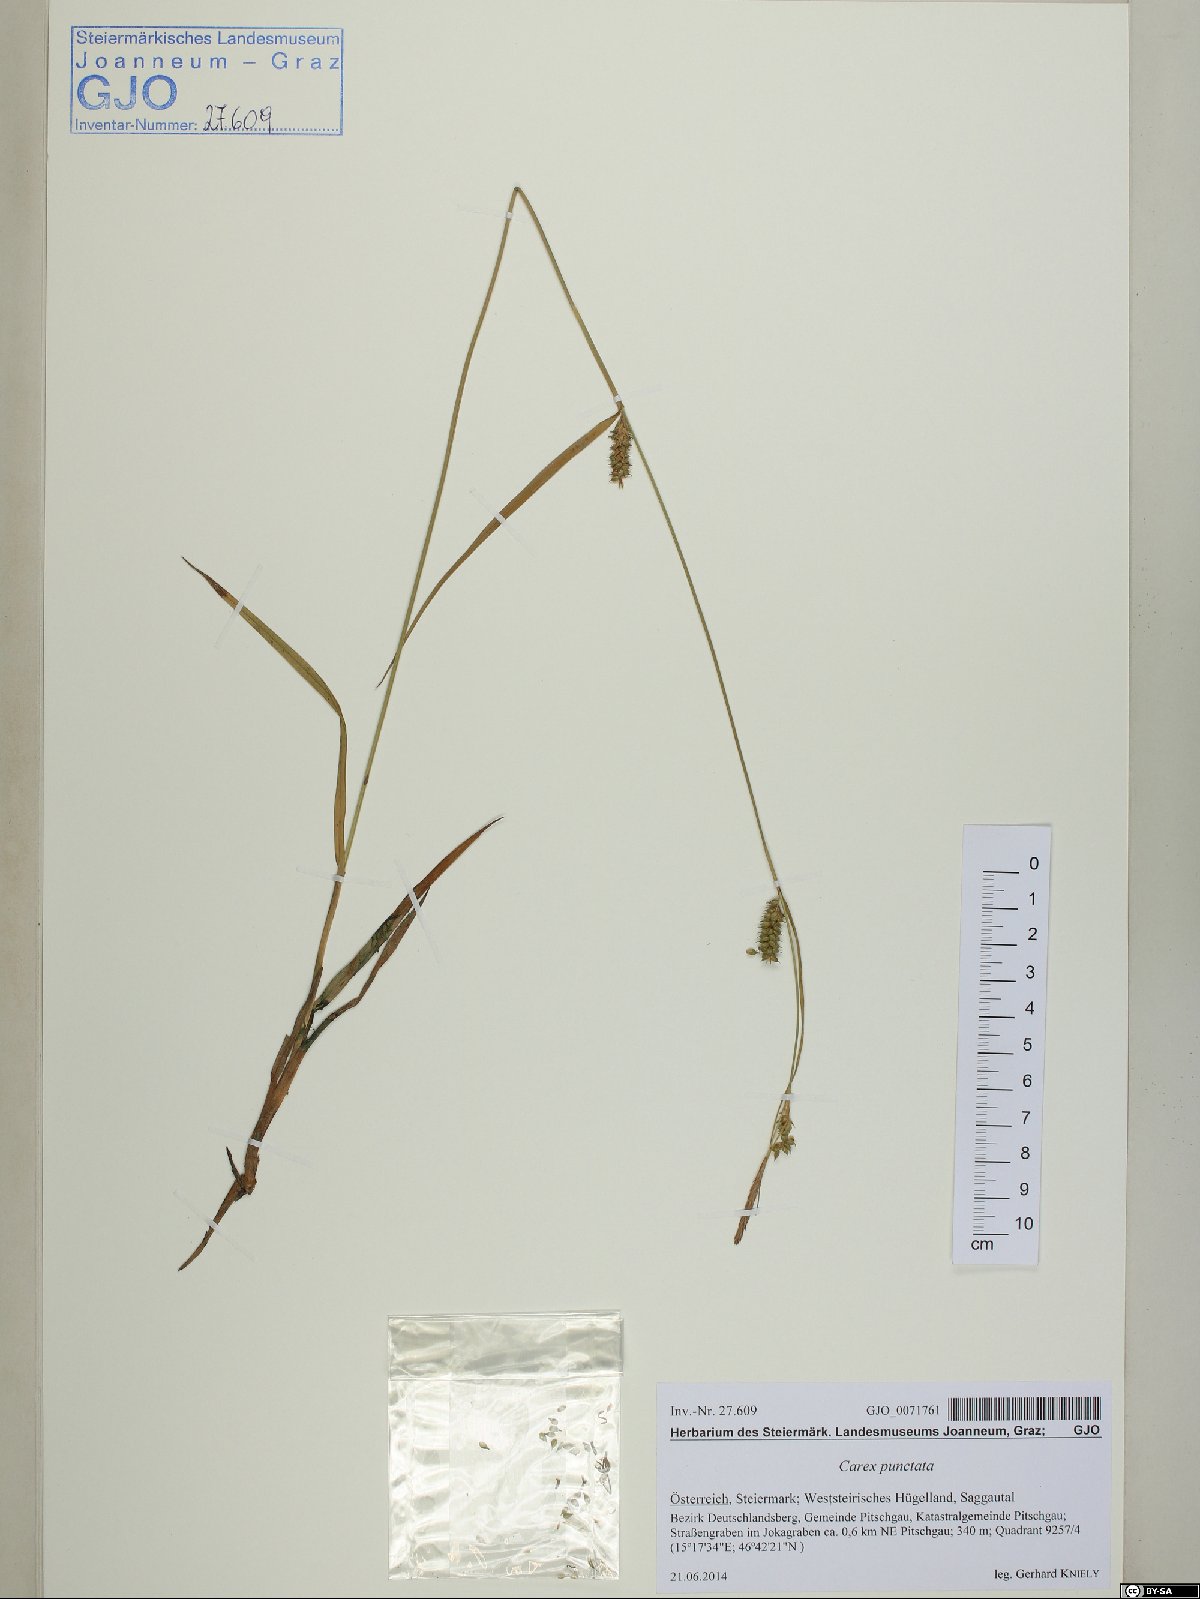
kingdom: Plantae
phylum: Tracheophyta
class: Liliopsida
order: Poales
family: Cyperaceae
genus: Carex
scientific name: Carex punctata
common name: Dotted sedge
